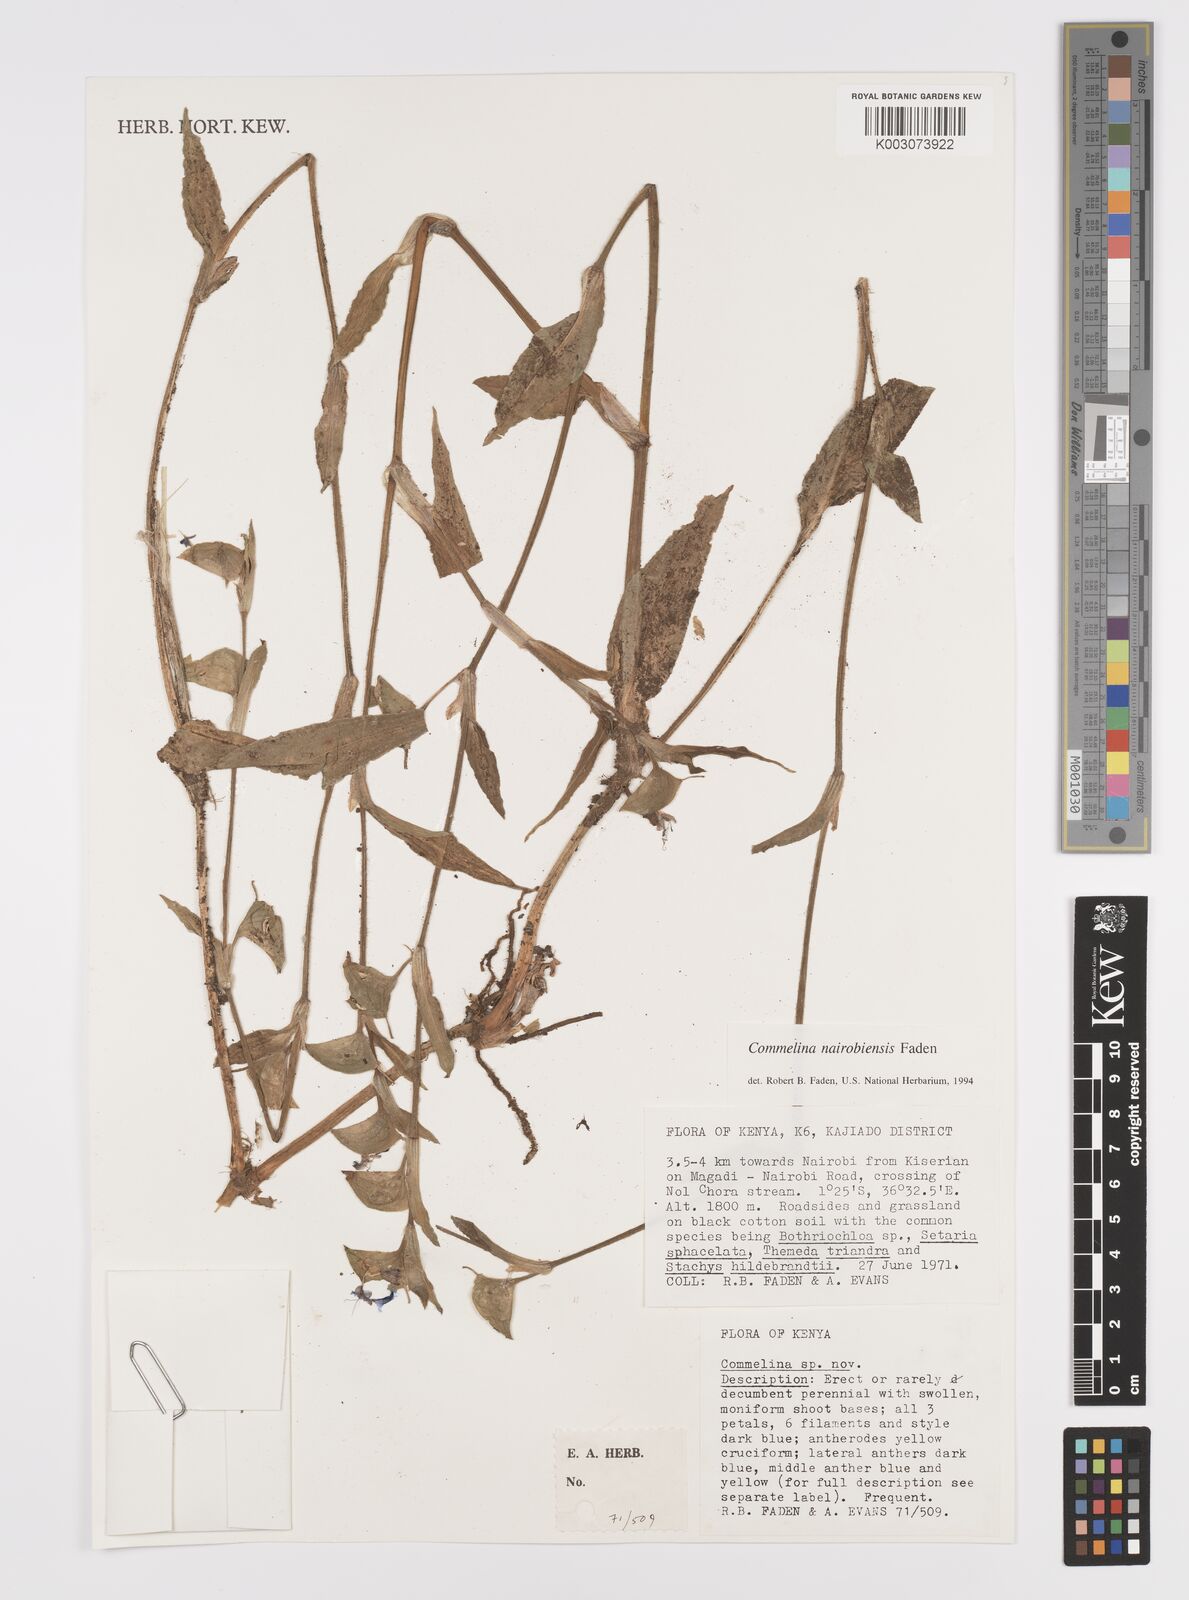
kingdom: Plantae
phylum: Tracheophyta
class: Liliopsida
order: Commelinales
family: Commelinaceae
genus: Commelina
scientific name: Commelina eckloniana
